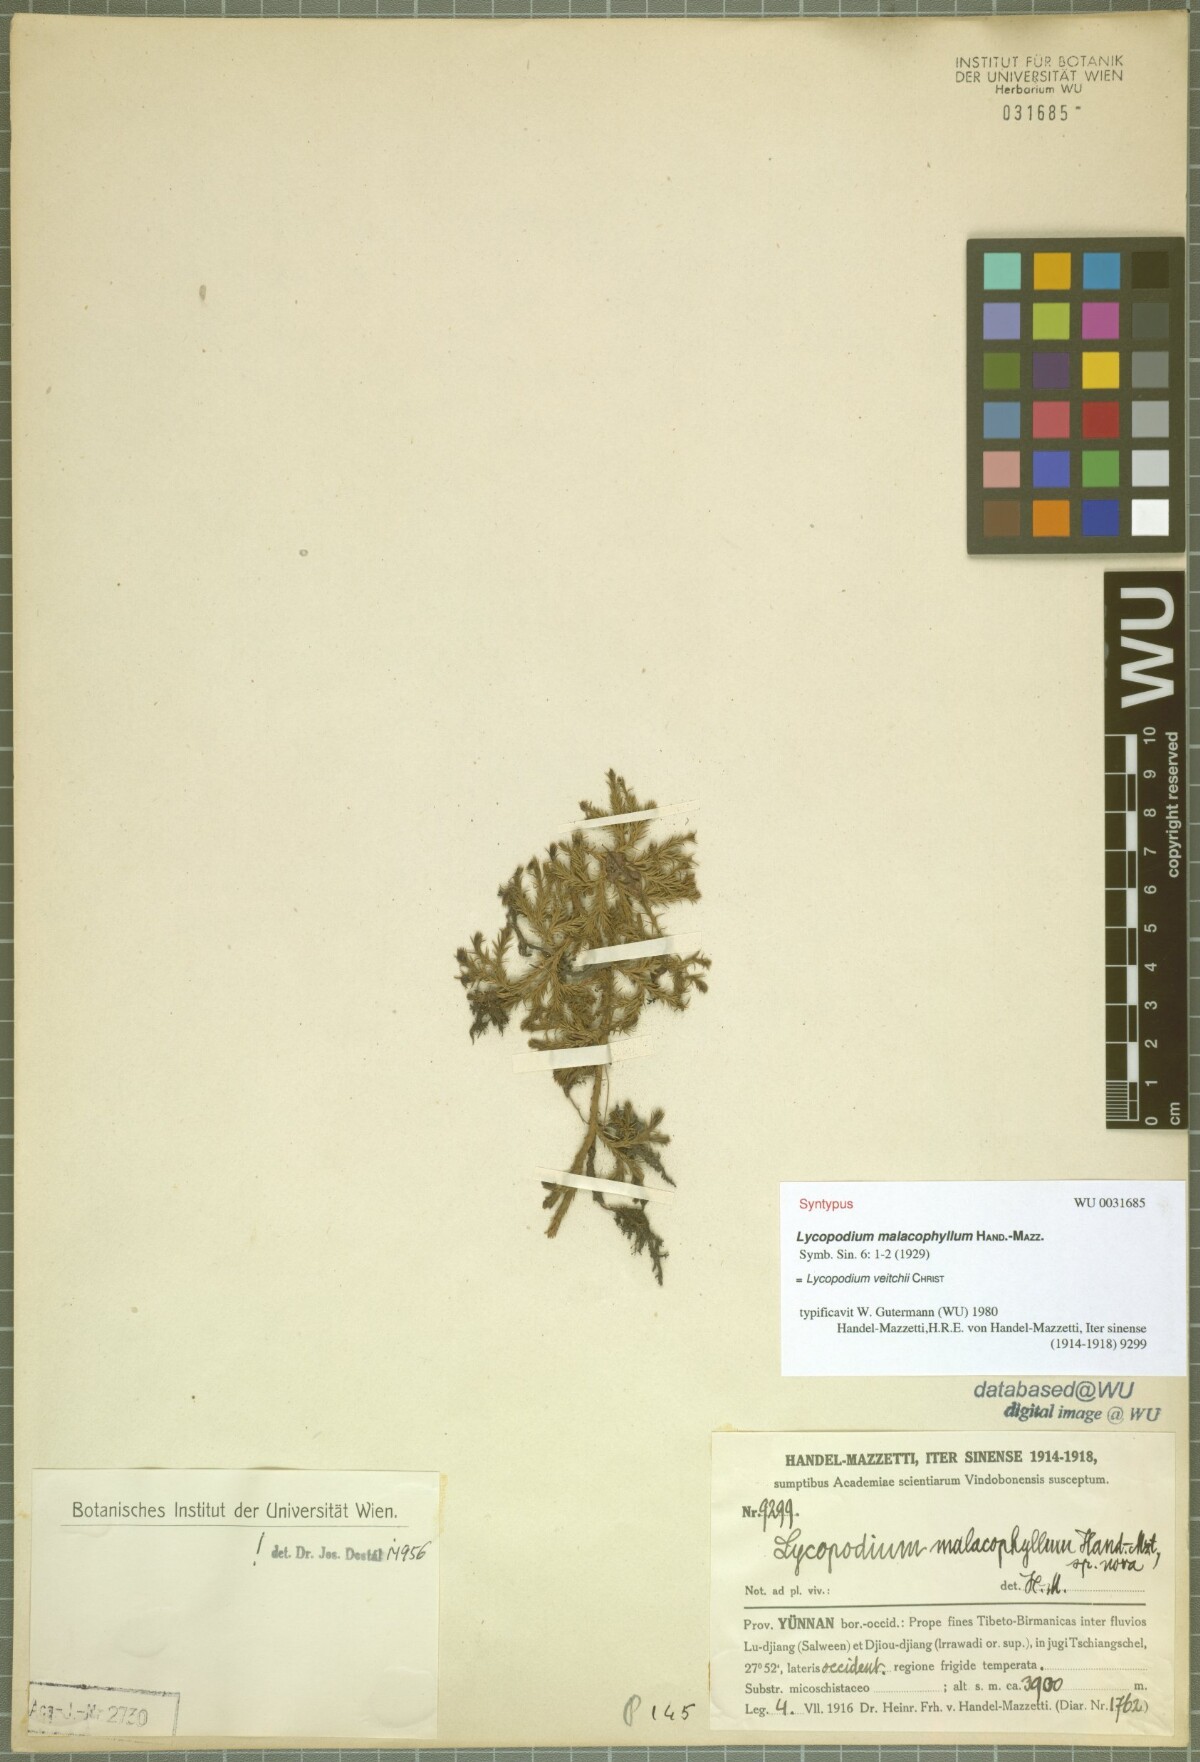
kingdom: Plantae
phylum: Tracheophyta
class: Lycopodiopsida
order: Lycopodiales
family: Lycopodiaceae
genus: Diphasiastrum
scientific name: Diphasiastrum veitchii
